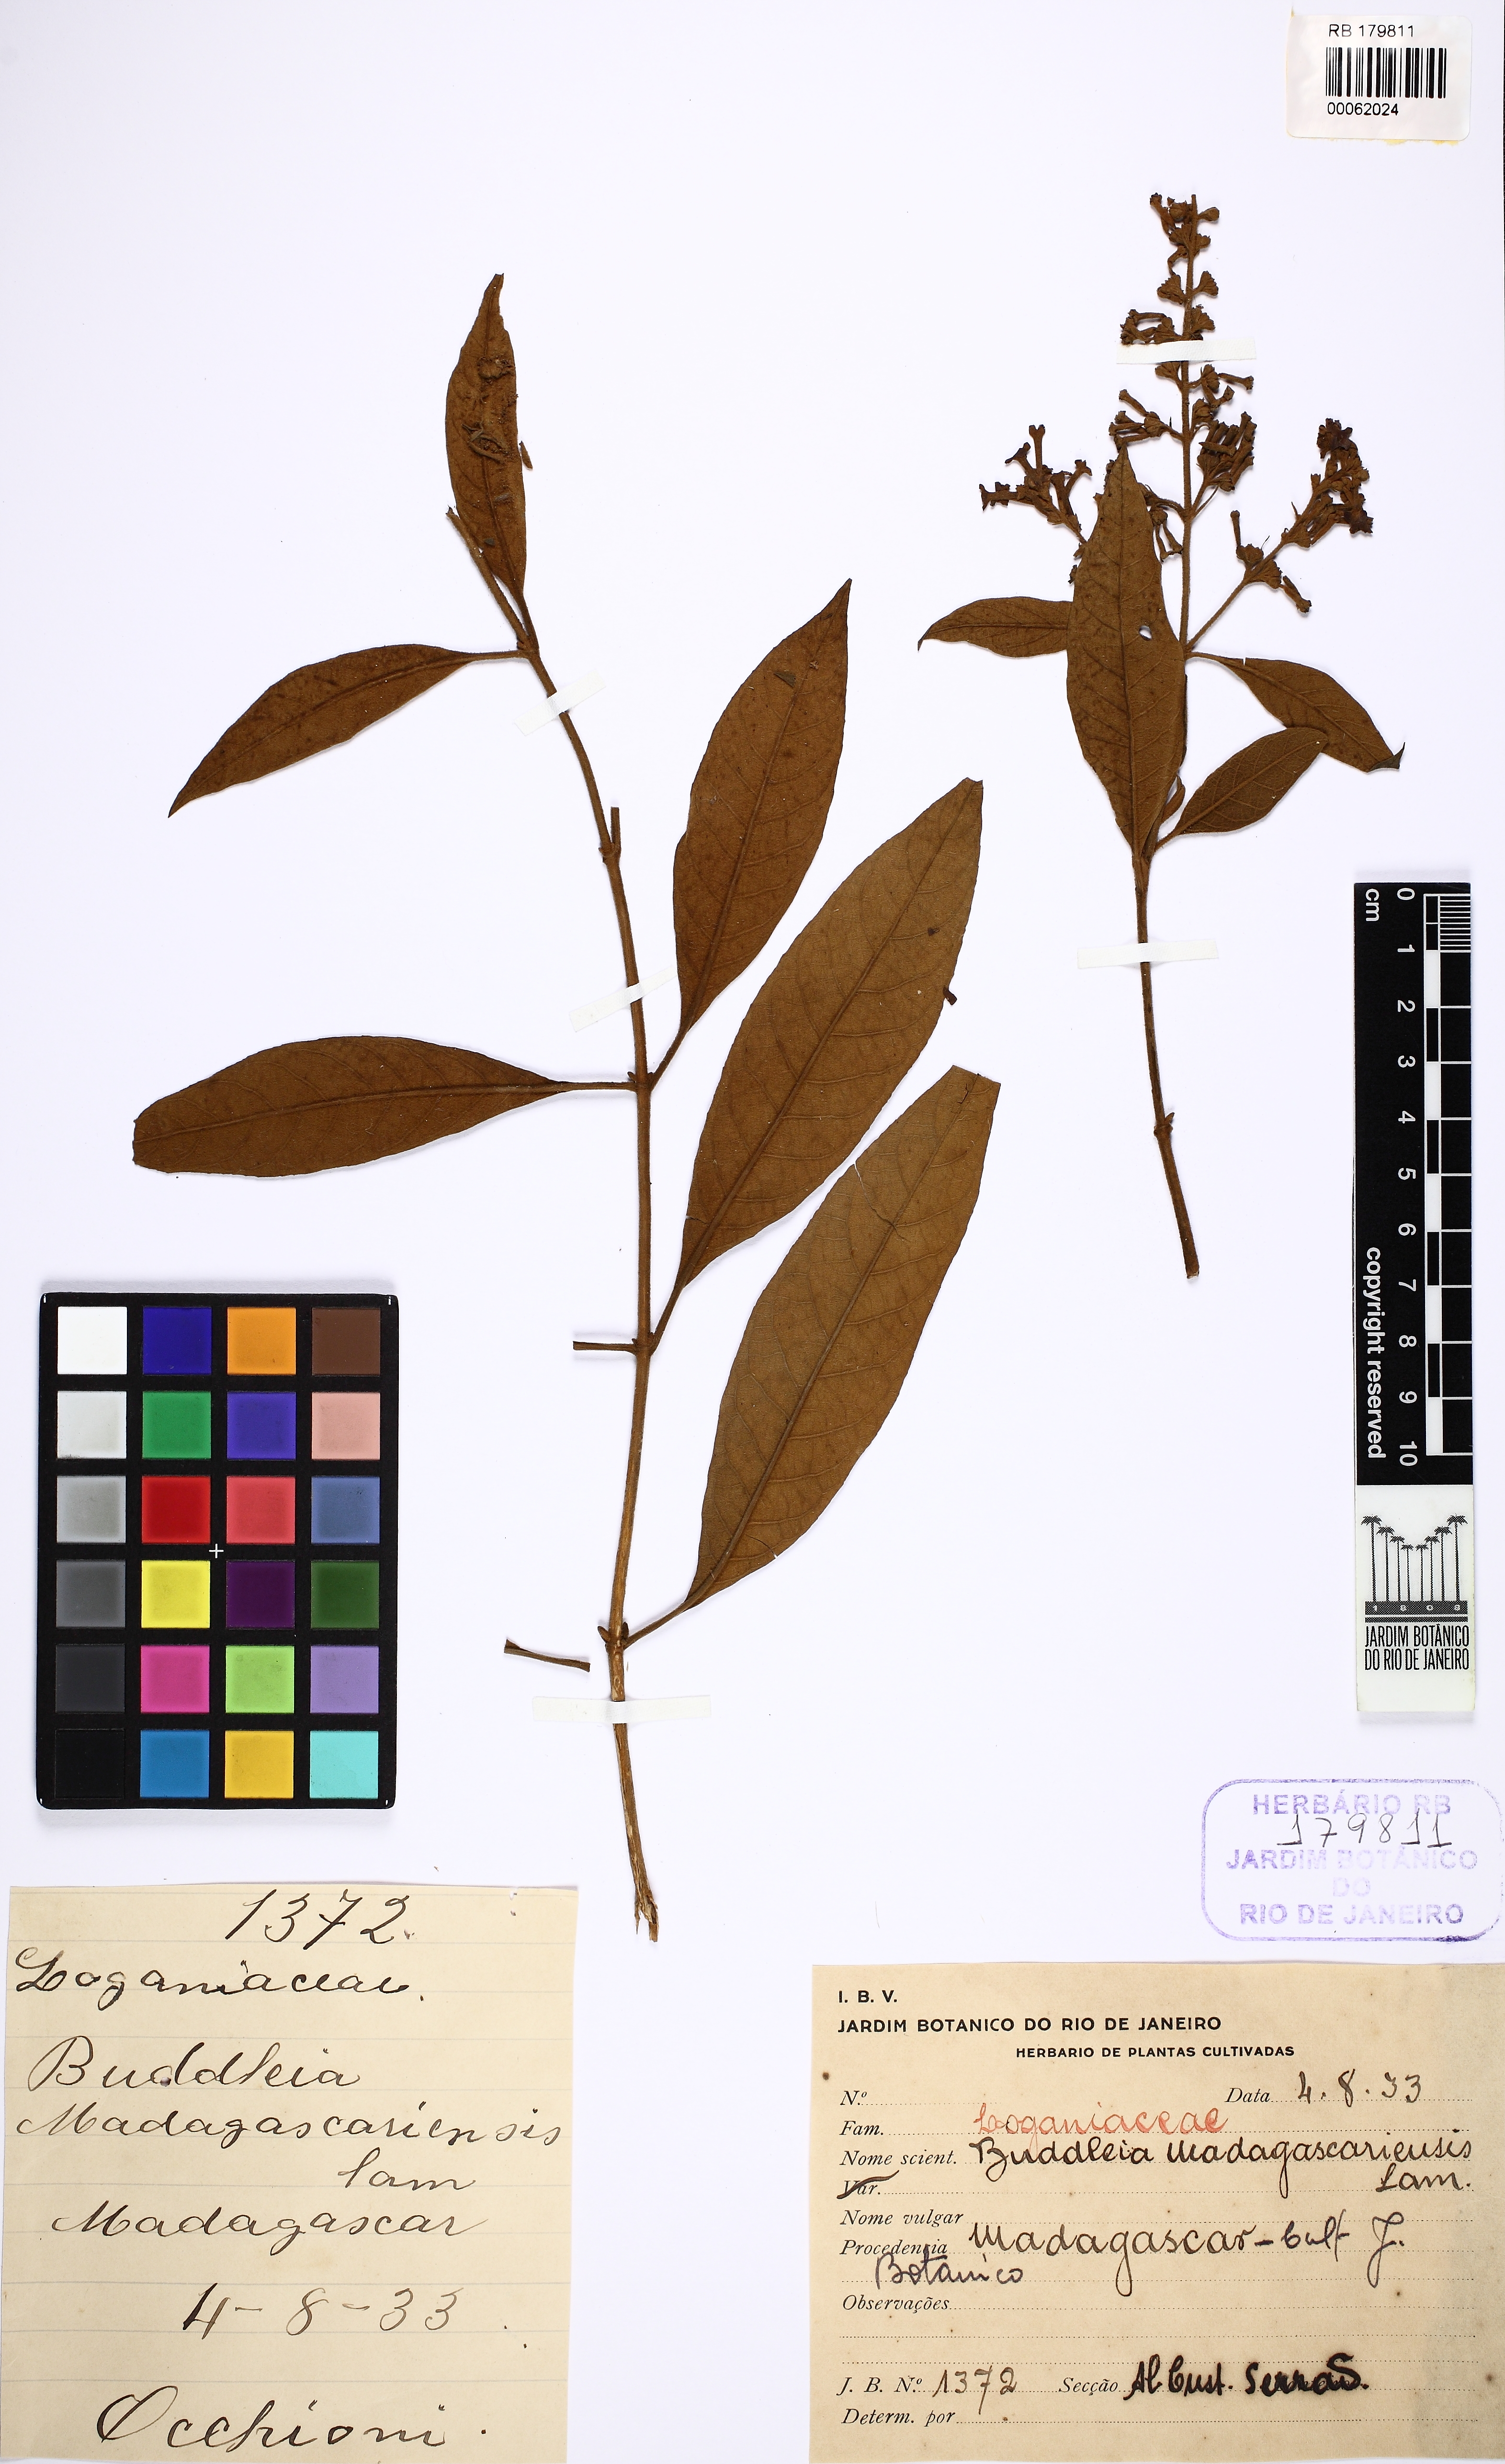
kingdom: Plantae
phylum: Tracheophyta
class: Magnoliopsida
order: Lamiales
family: Scrophulariaceae
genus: Buddleja
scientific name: Buddleja madagascariensis
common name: Smokebush
